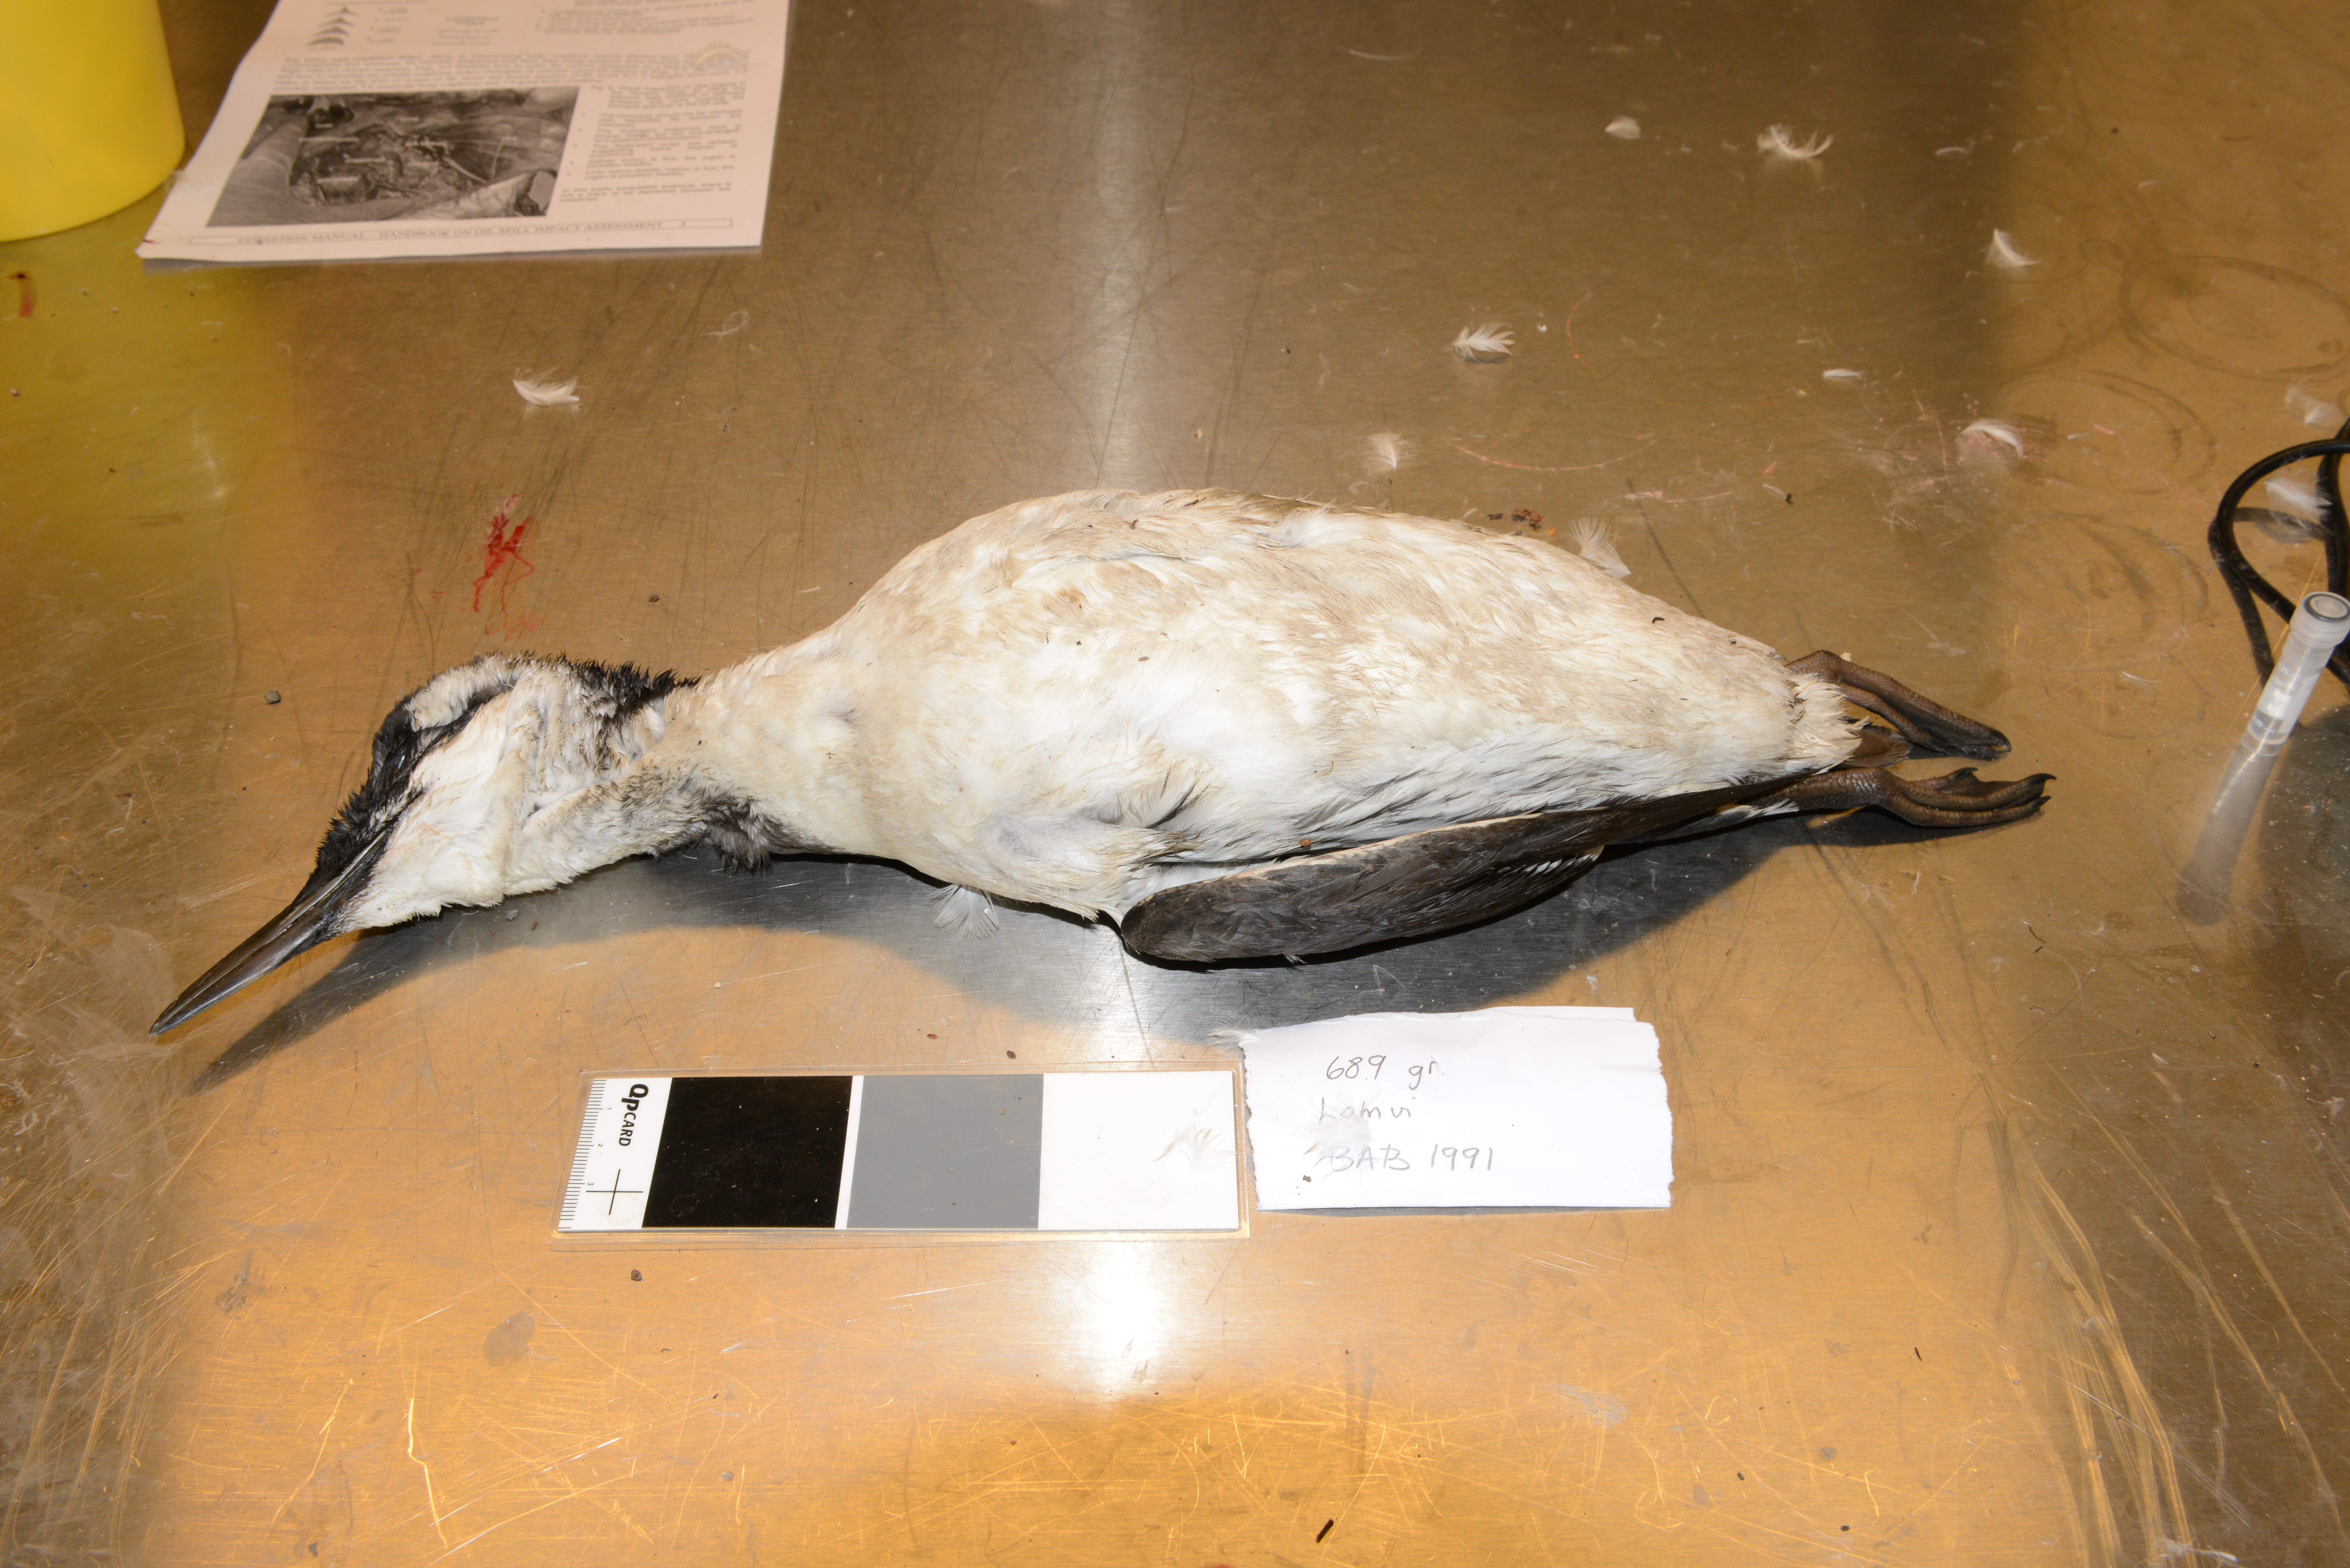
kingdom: Animalia
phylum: Chordata
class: Aves
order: Charadriiformes
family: Alcidae
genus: Uria
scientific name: Uria aalge
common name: Common murre
